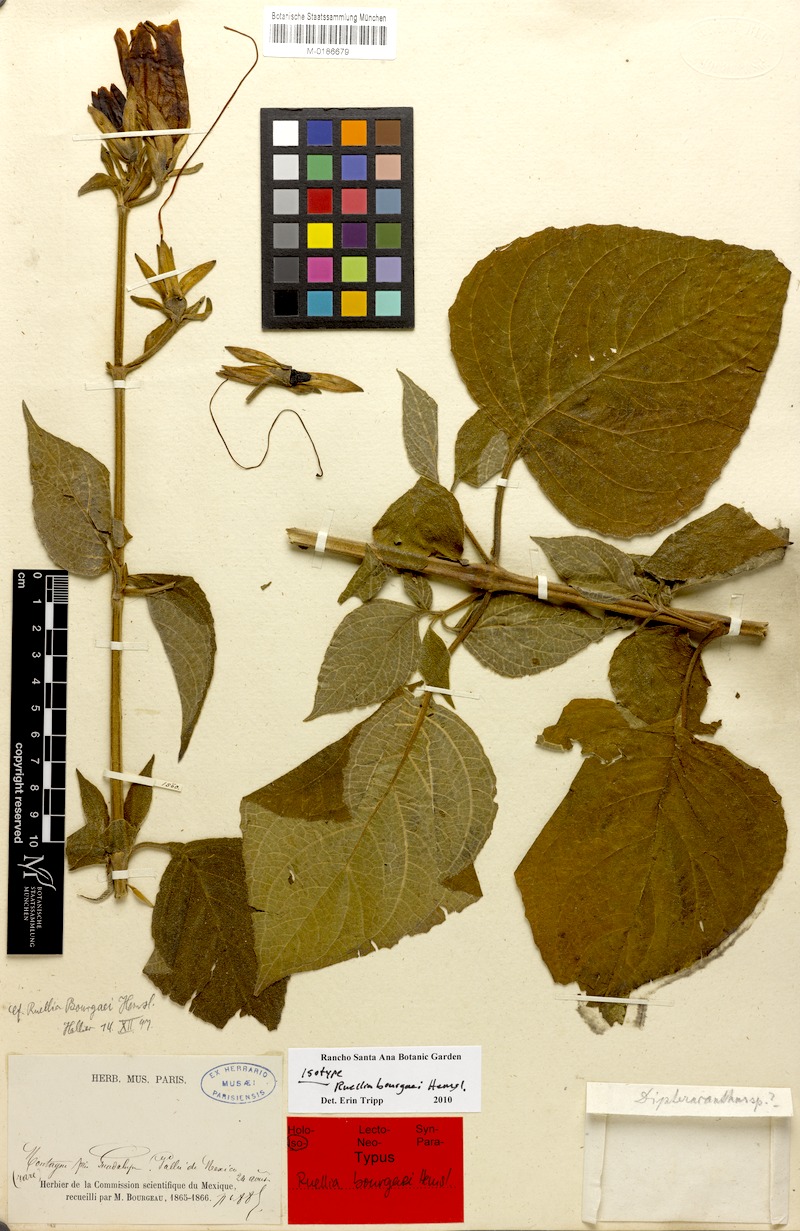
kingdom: Plantae
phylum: Tracheophyta
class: Magnoliopsida
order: Lamiales
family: Acanthaceae
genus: Ruellia
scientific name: Ruellia bourgaei
